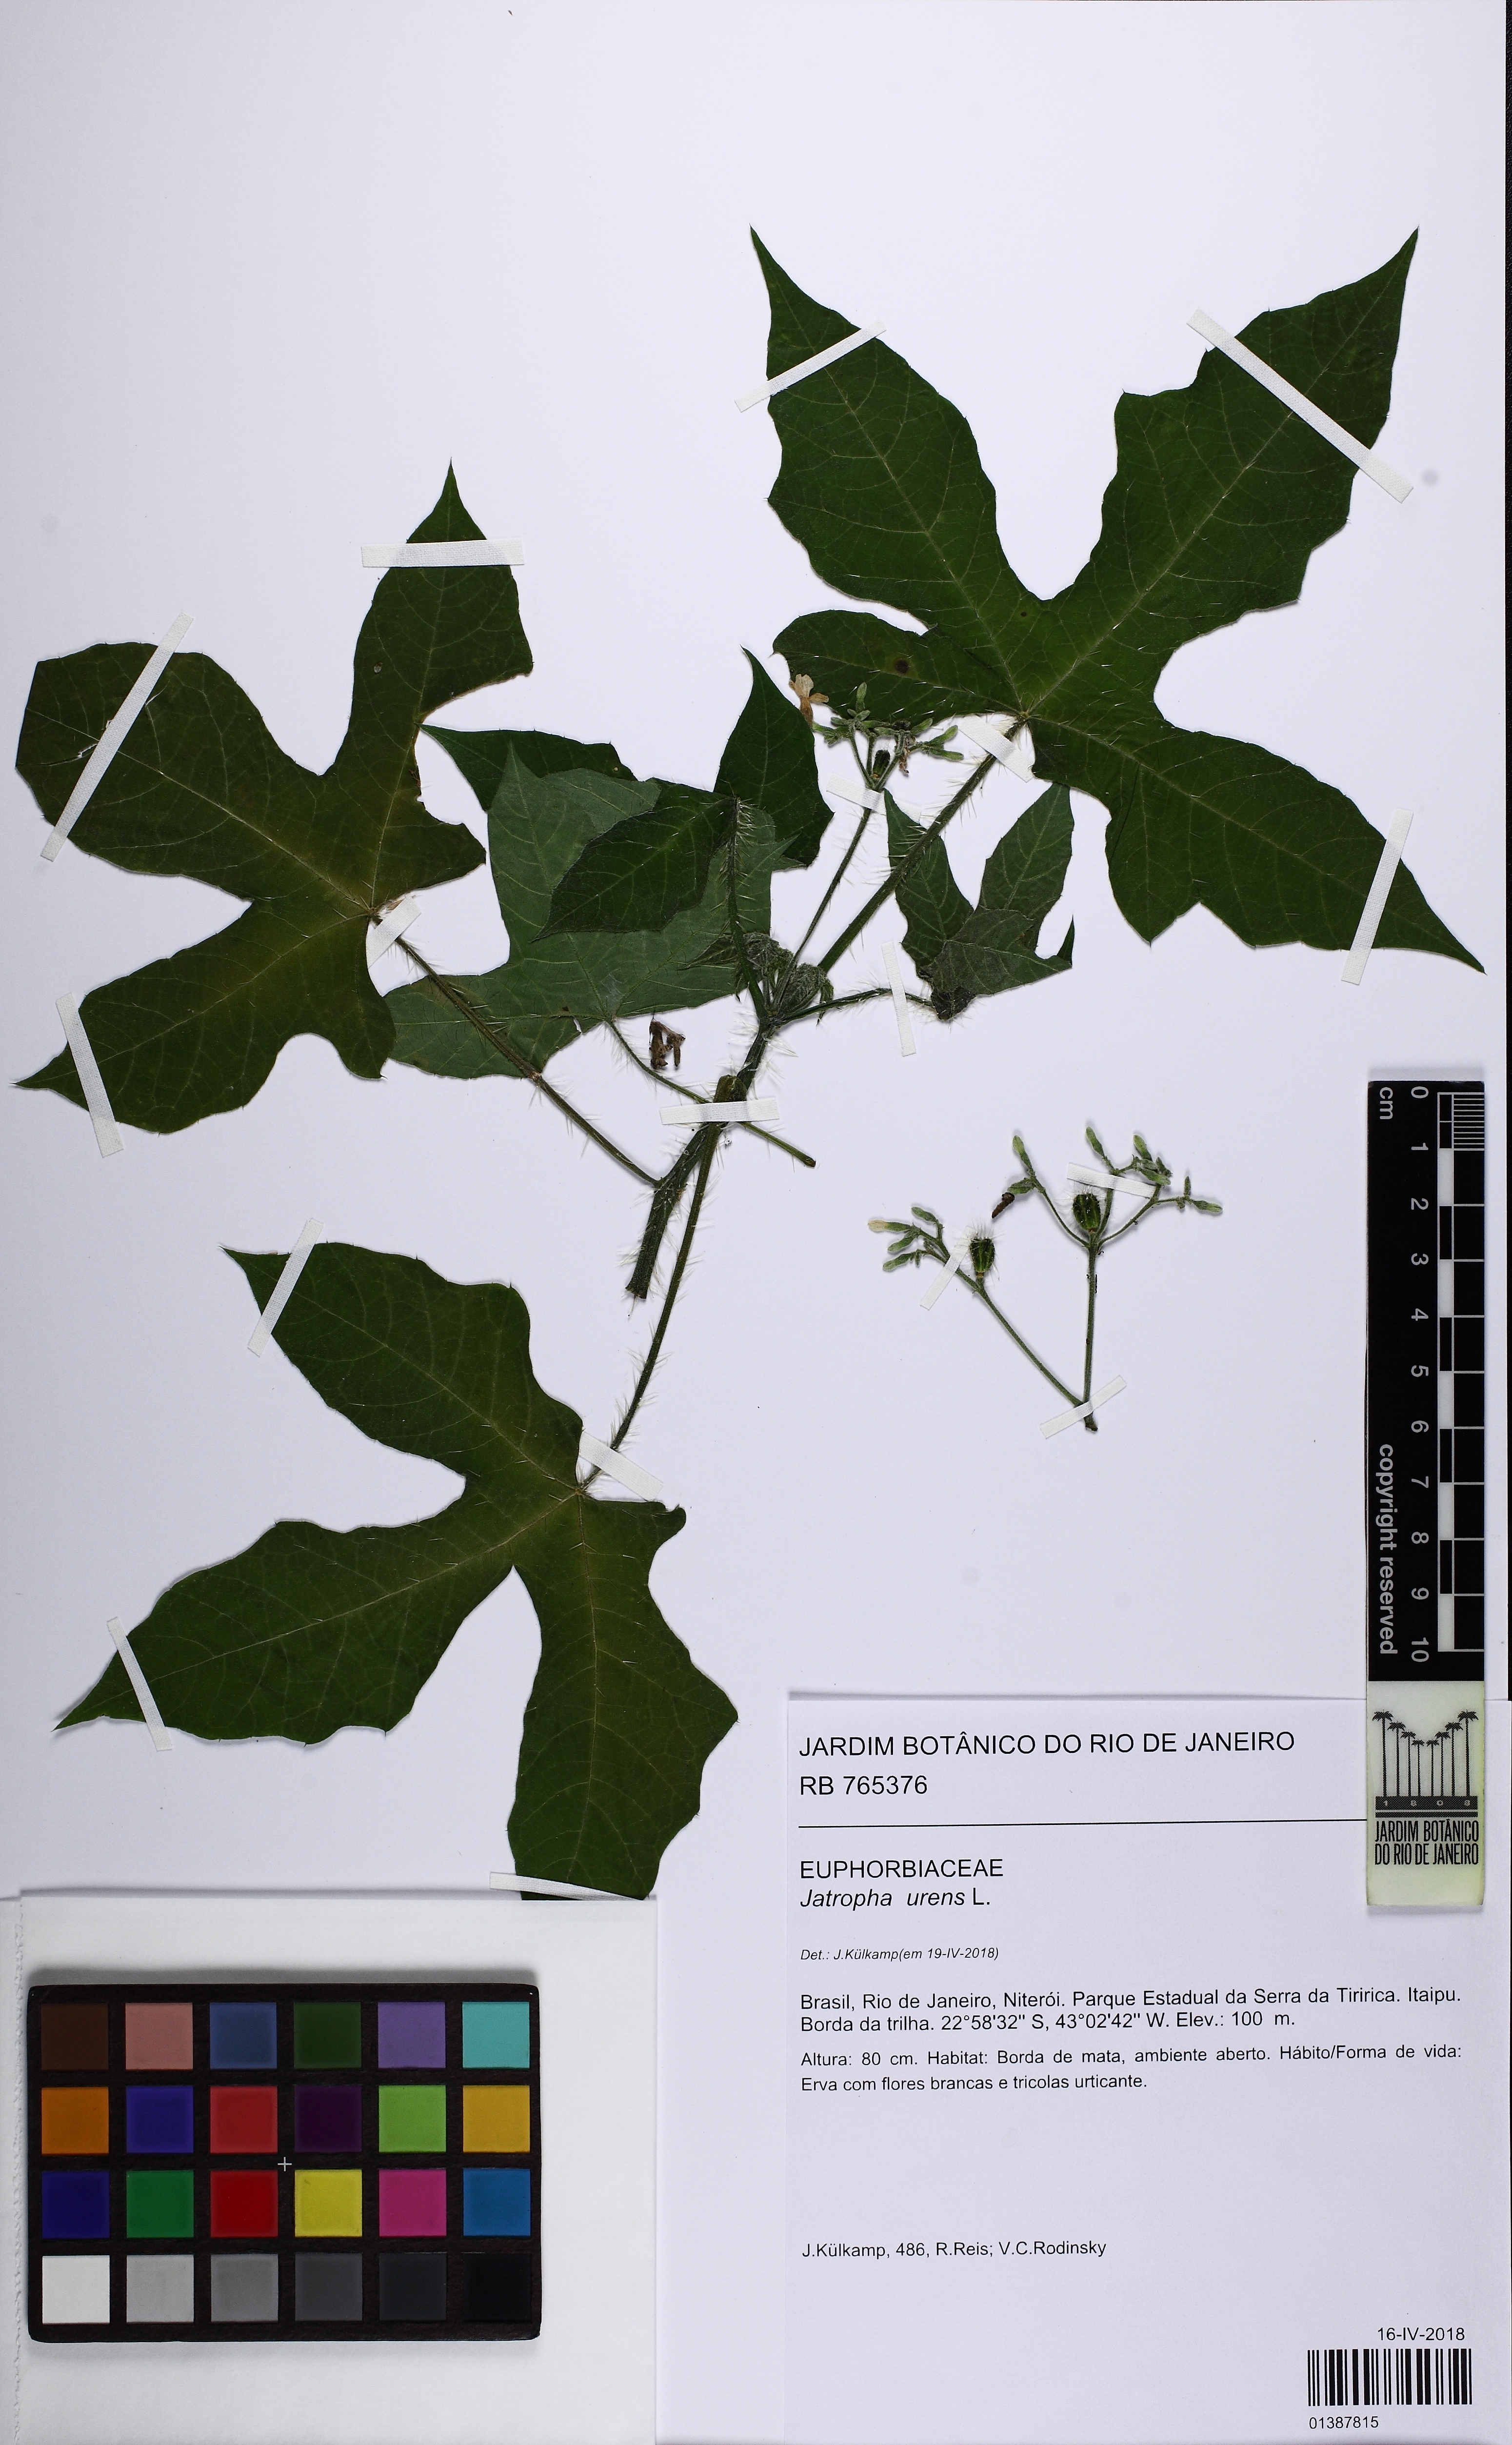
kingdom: Plantae
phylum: Tracheophyta
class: Magnoliopsida
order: Malpighiales
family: Euphorbiaceae
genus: Cnidoscolus
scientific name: Cnidoscolus urens
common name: Bull-nettle
